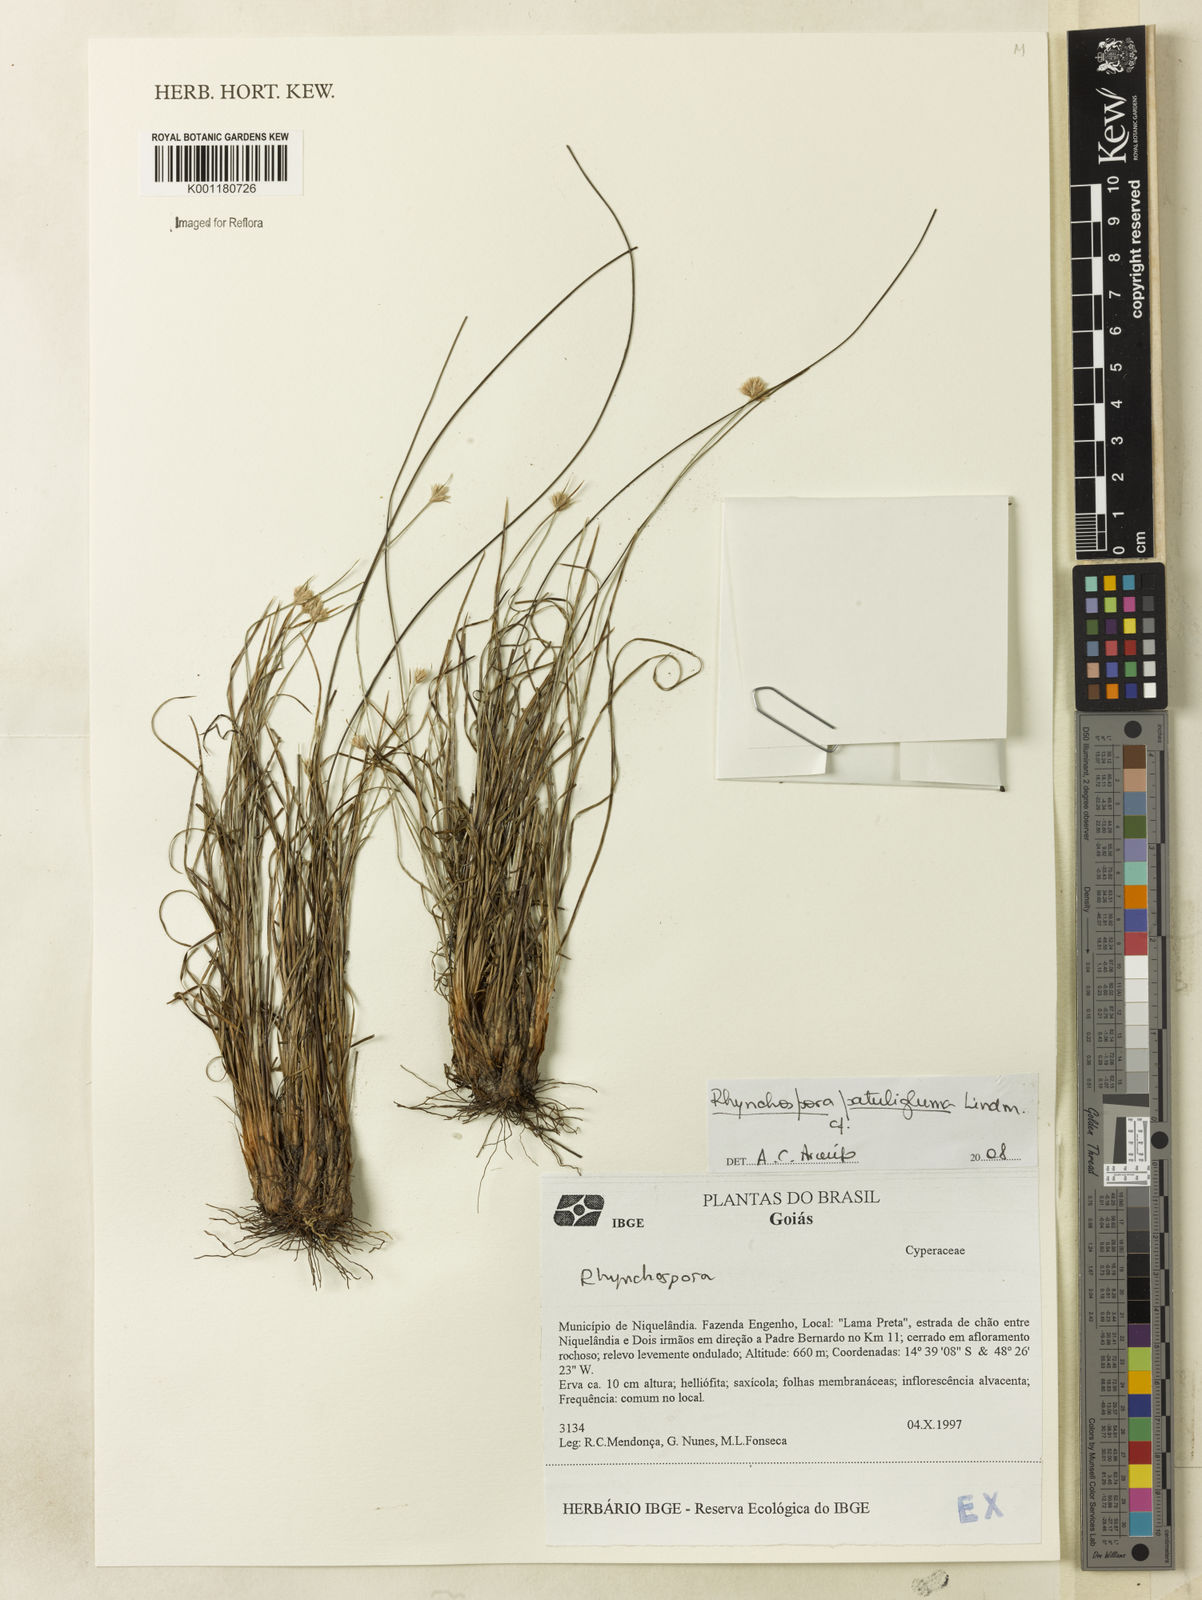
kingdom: Plantae
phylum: Tracheophyta
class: Liliopsida
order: Poales
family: Cyperaceae
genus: Rhynchospora
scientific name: Rhynchospora patuligluma
